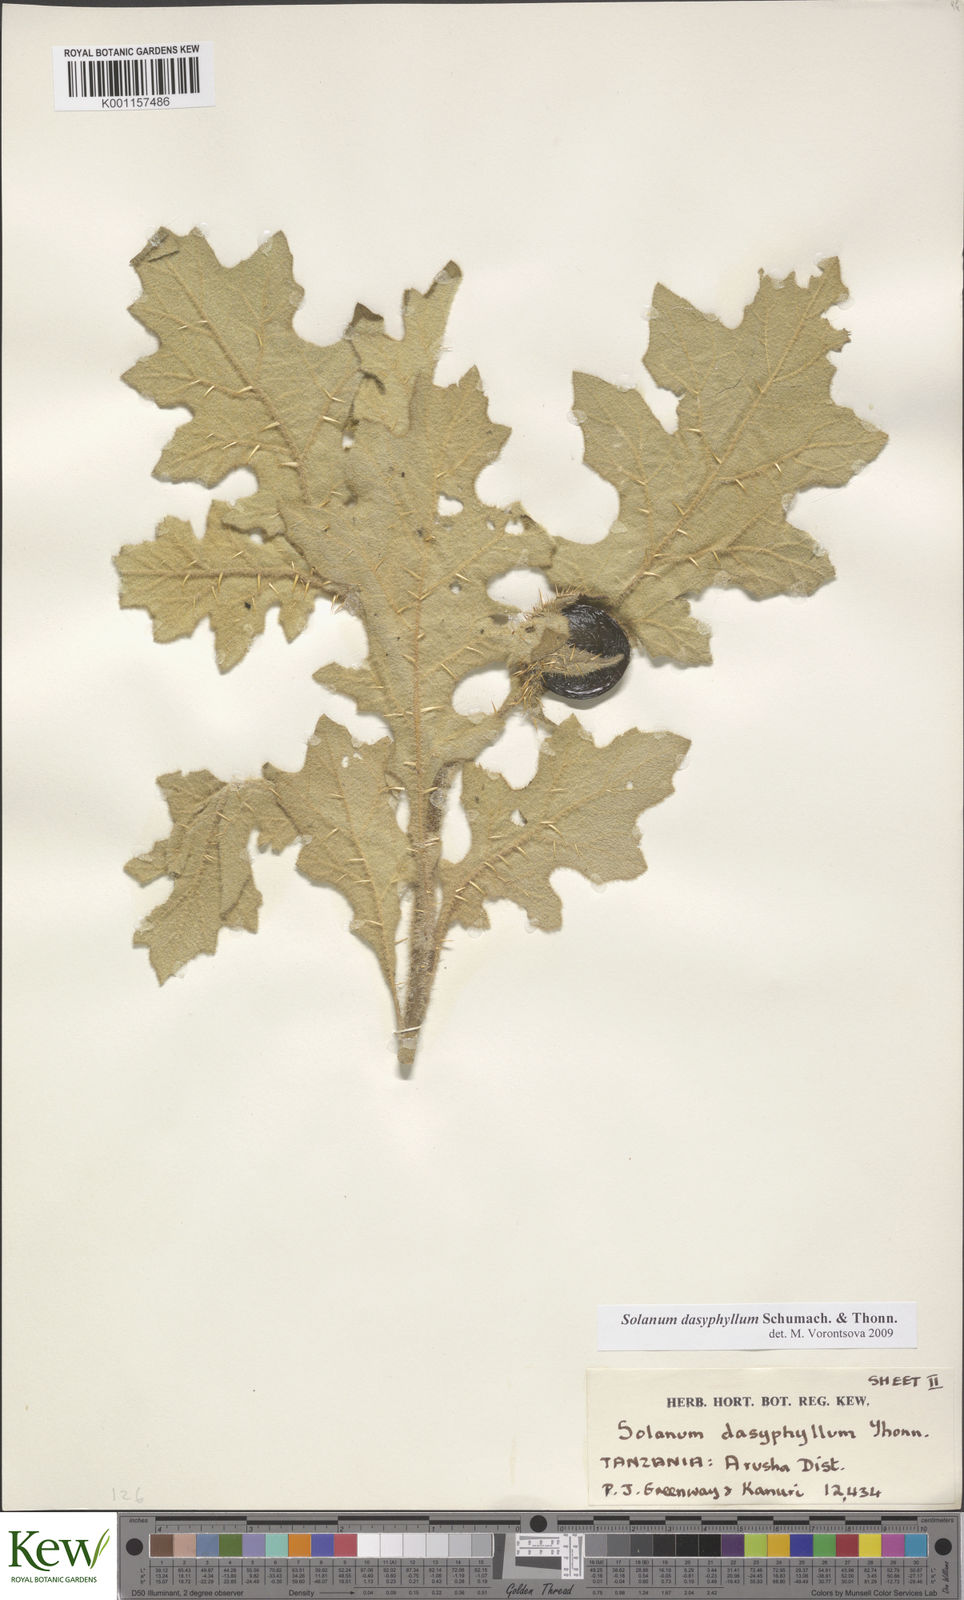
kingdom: Plantae
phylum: Tracheophyta
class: Magnoliopsida
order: Solanales
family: Solanaceae
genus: Solanum
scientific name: Solanum dasyphyllum
